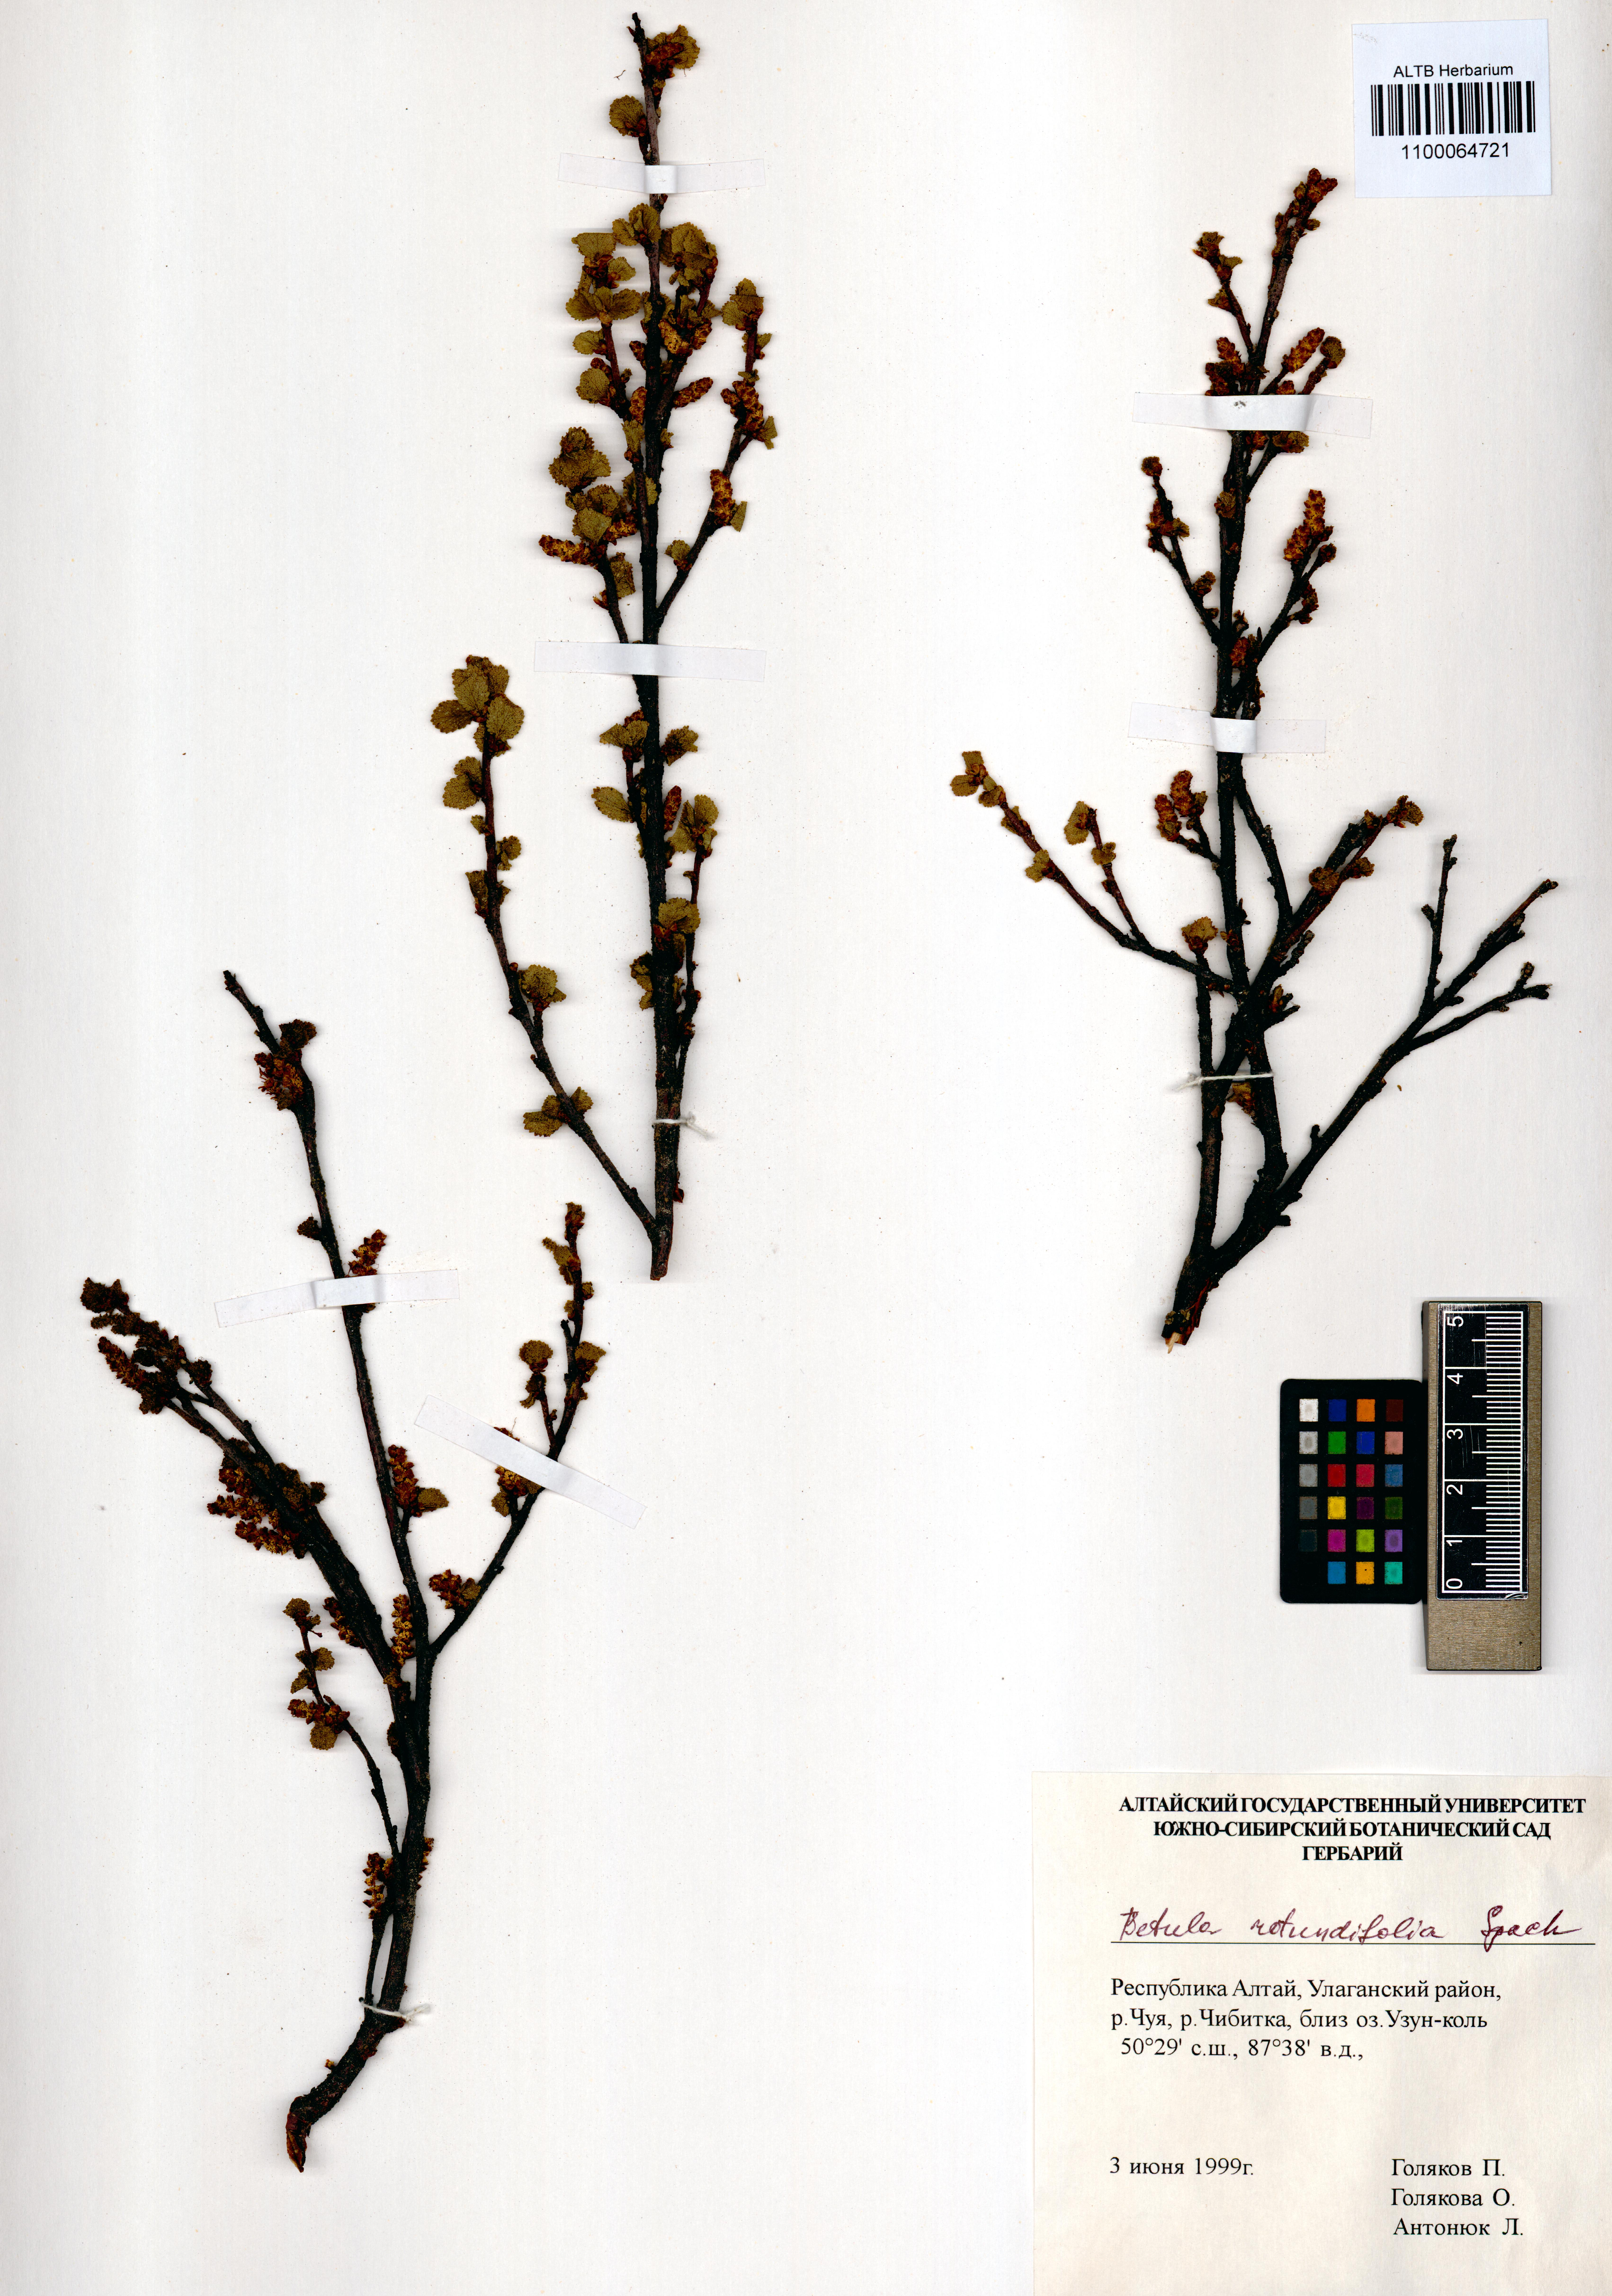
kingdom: Plantae
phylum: Tracheophyta
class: Magnoliopsida
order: Fagales
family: Betulaceae
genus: Betula
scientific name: Betula glandulosa
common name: Dwarf birch
